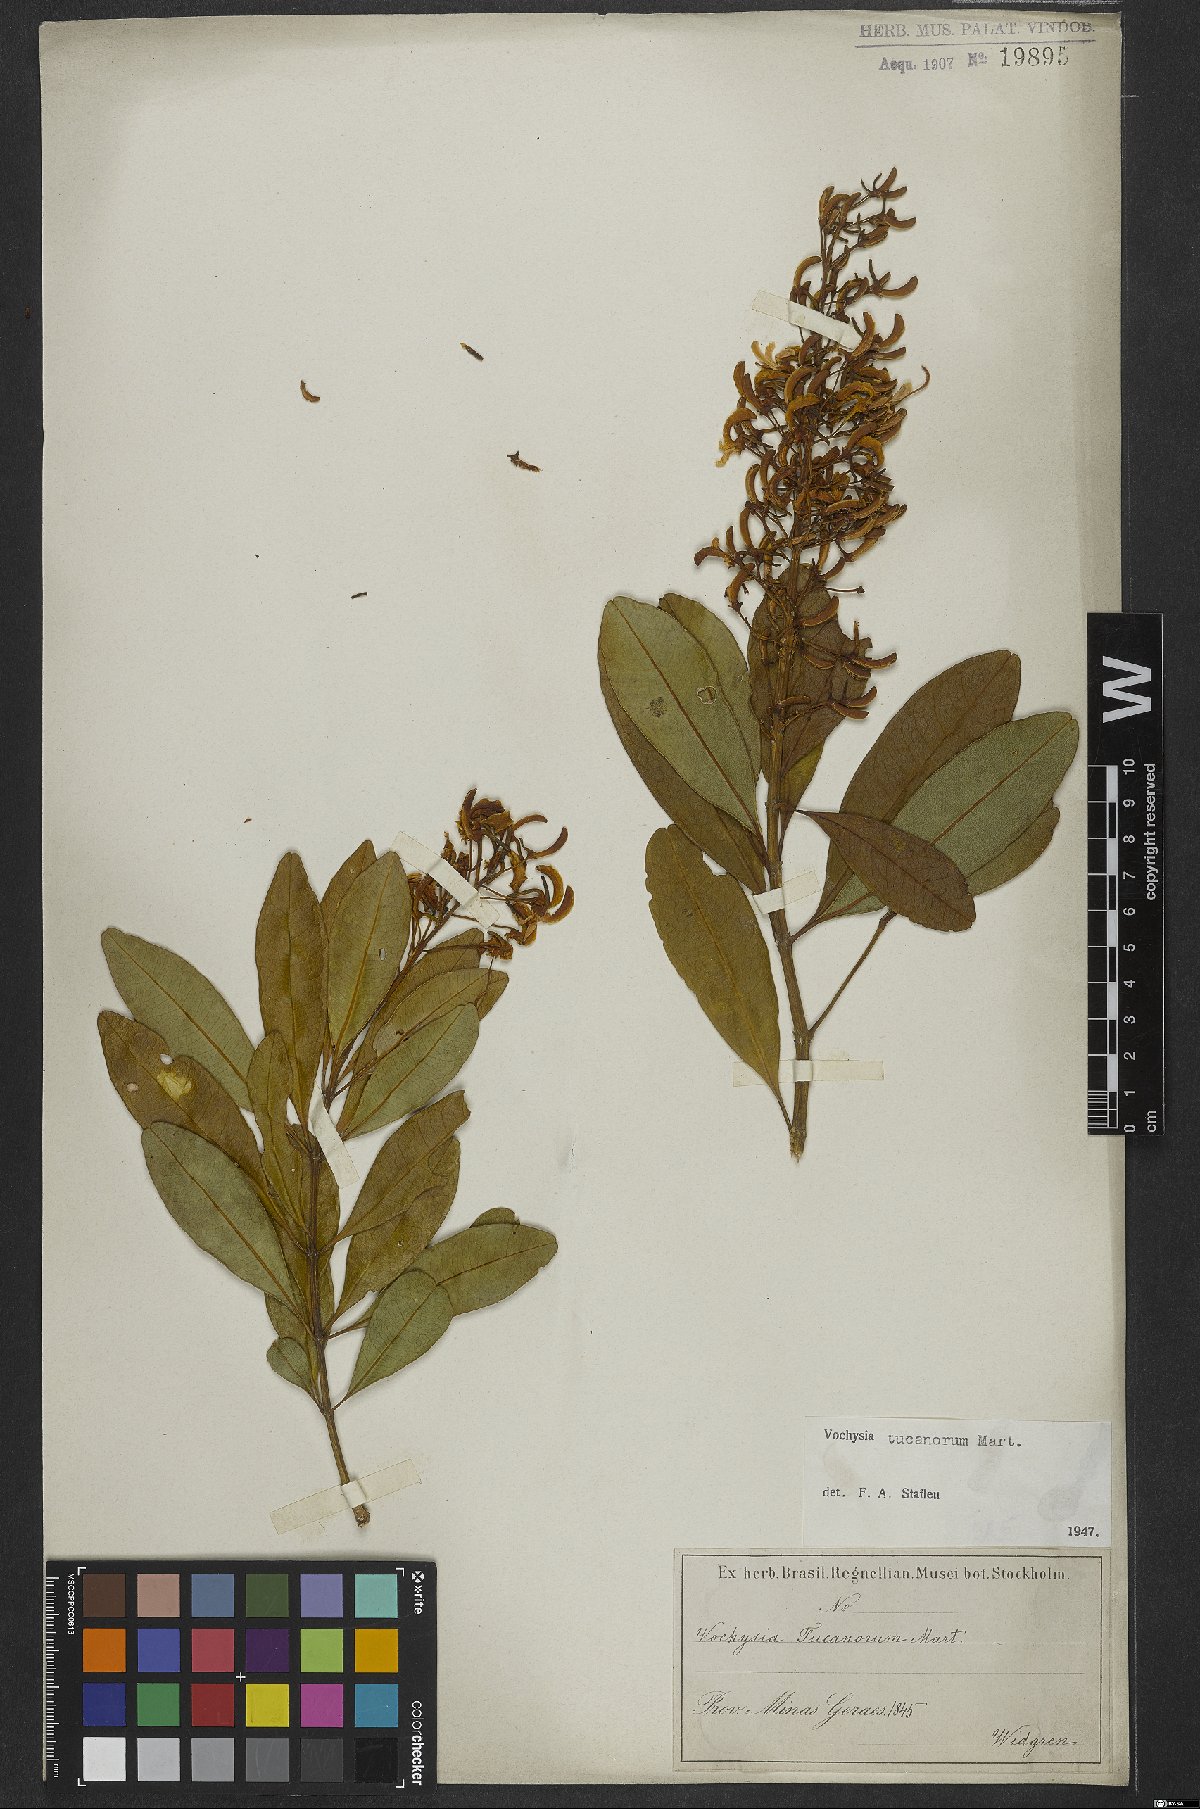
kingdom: Plantae
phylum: Tracheophyta
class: Magnoliopsida
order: Myrtales
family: Vochysiaceae
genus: Vochysia
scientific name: Vochysia tucanorum
